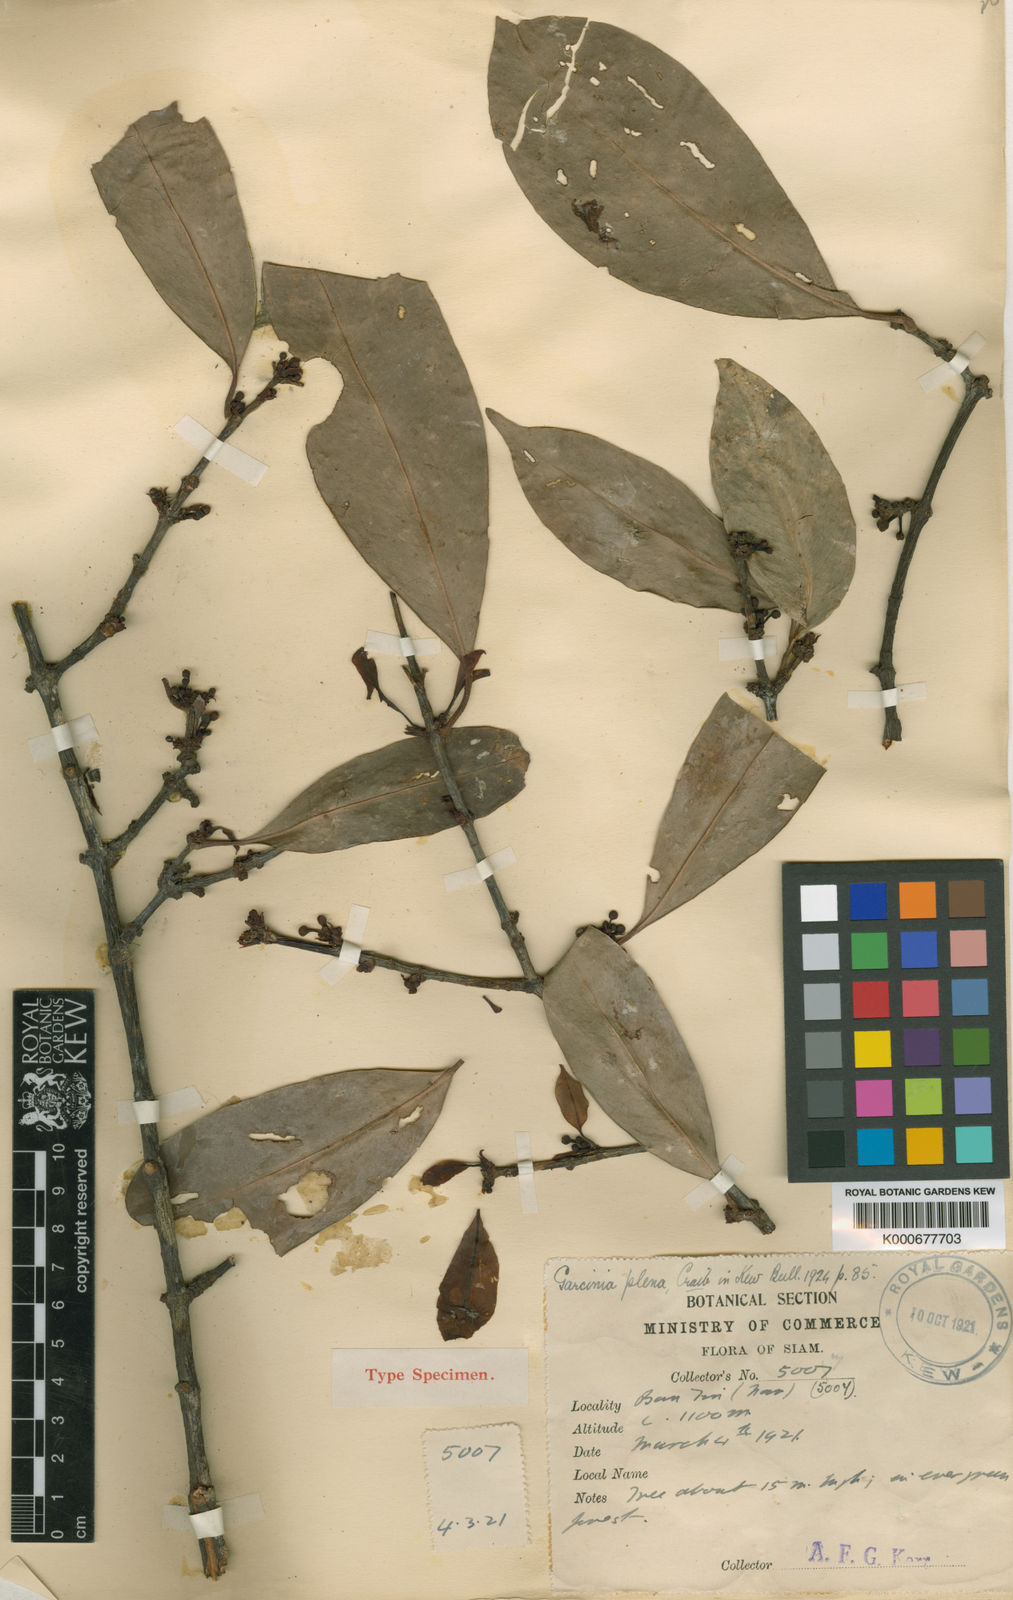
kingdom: Plantae
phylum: Tracheophyta
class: Magnoliopsida
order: Malpighiales
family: Clusiaceae
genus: Garcinia
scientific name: Garcinia plena
